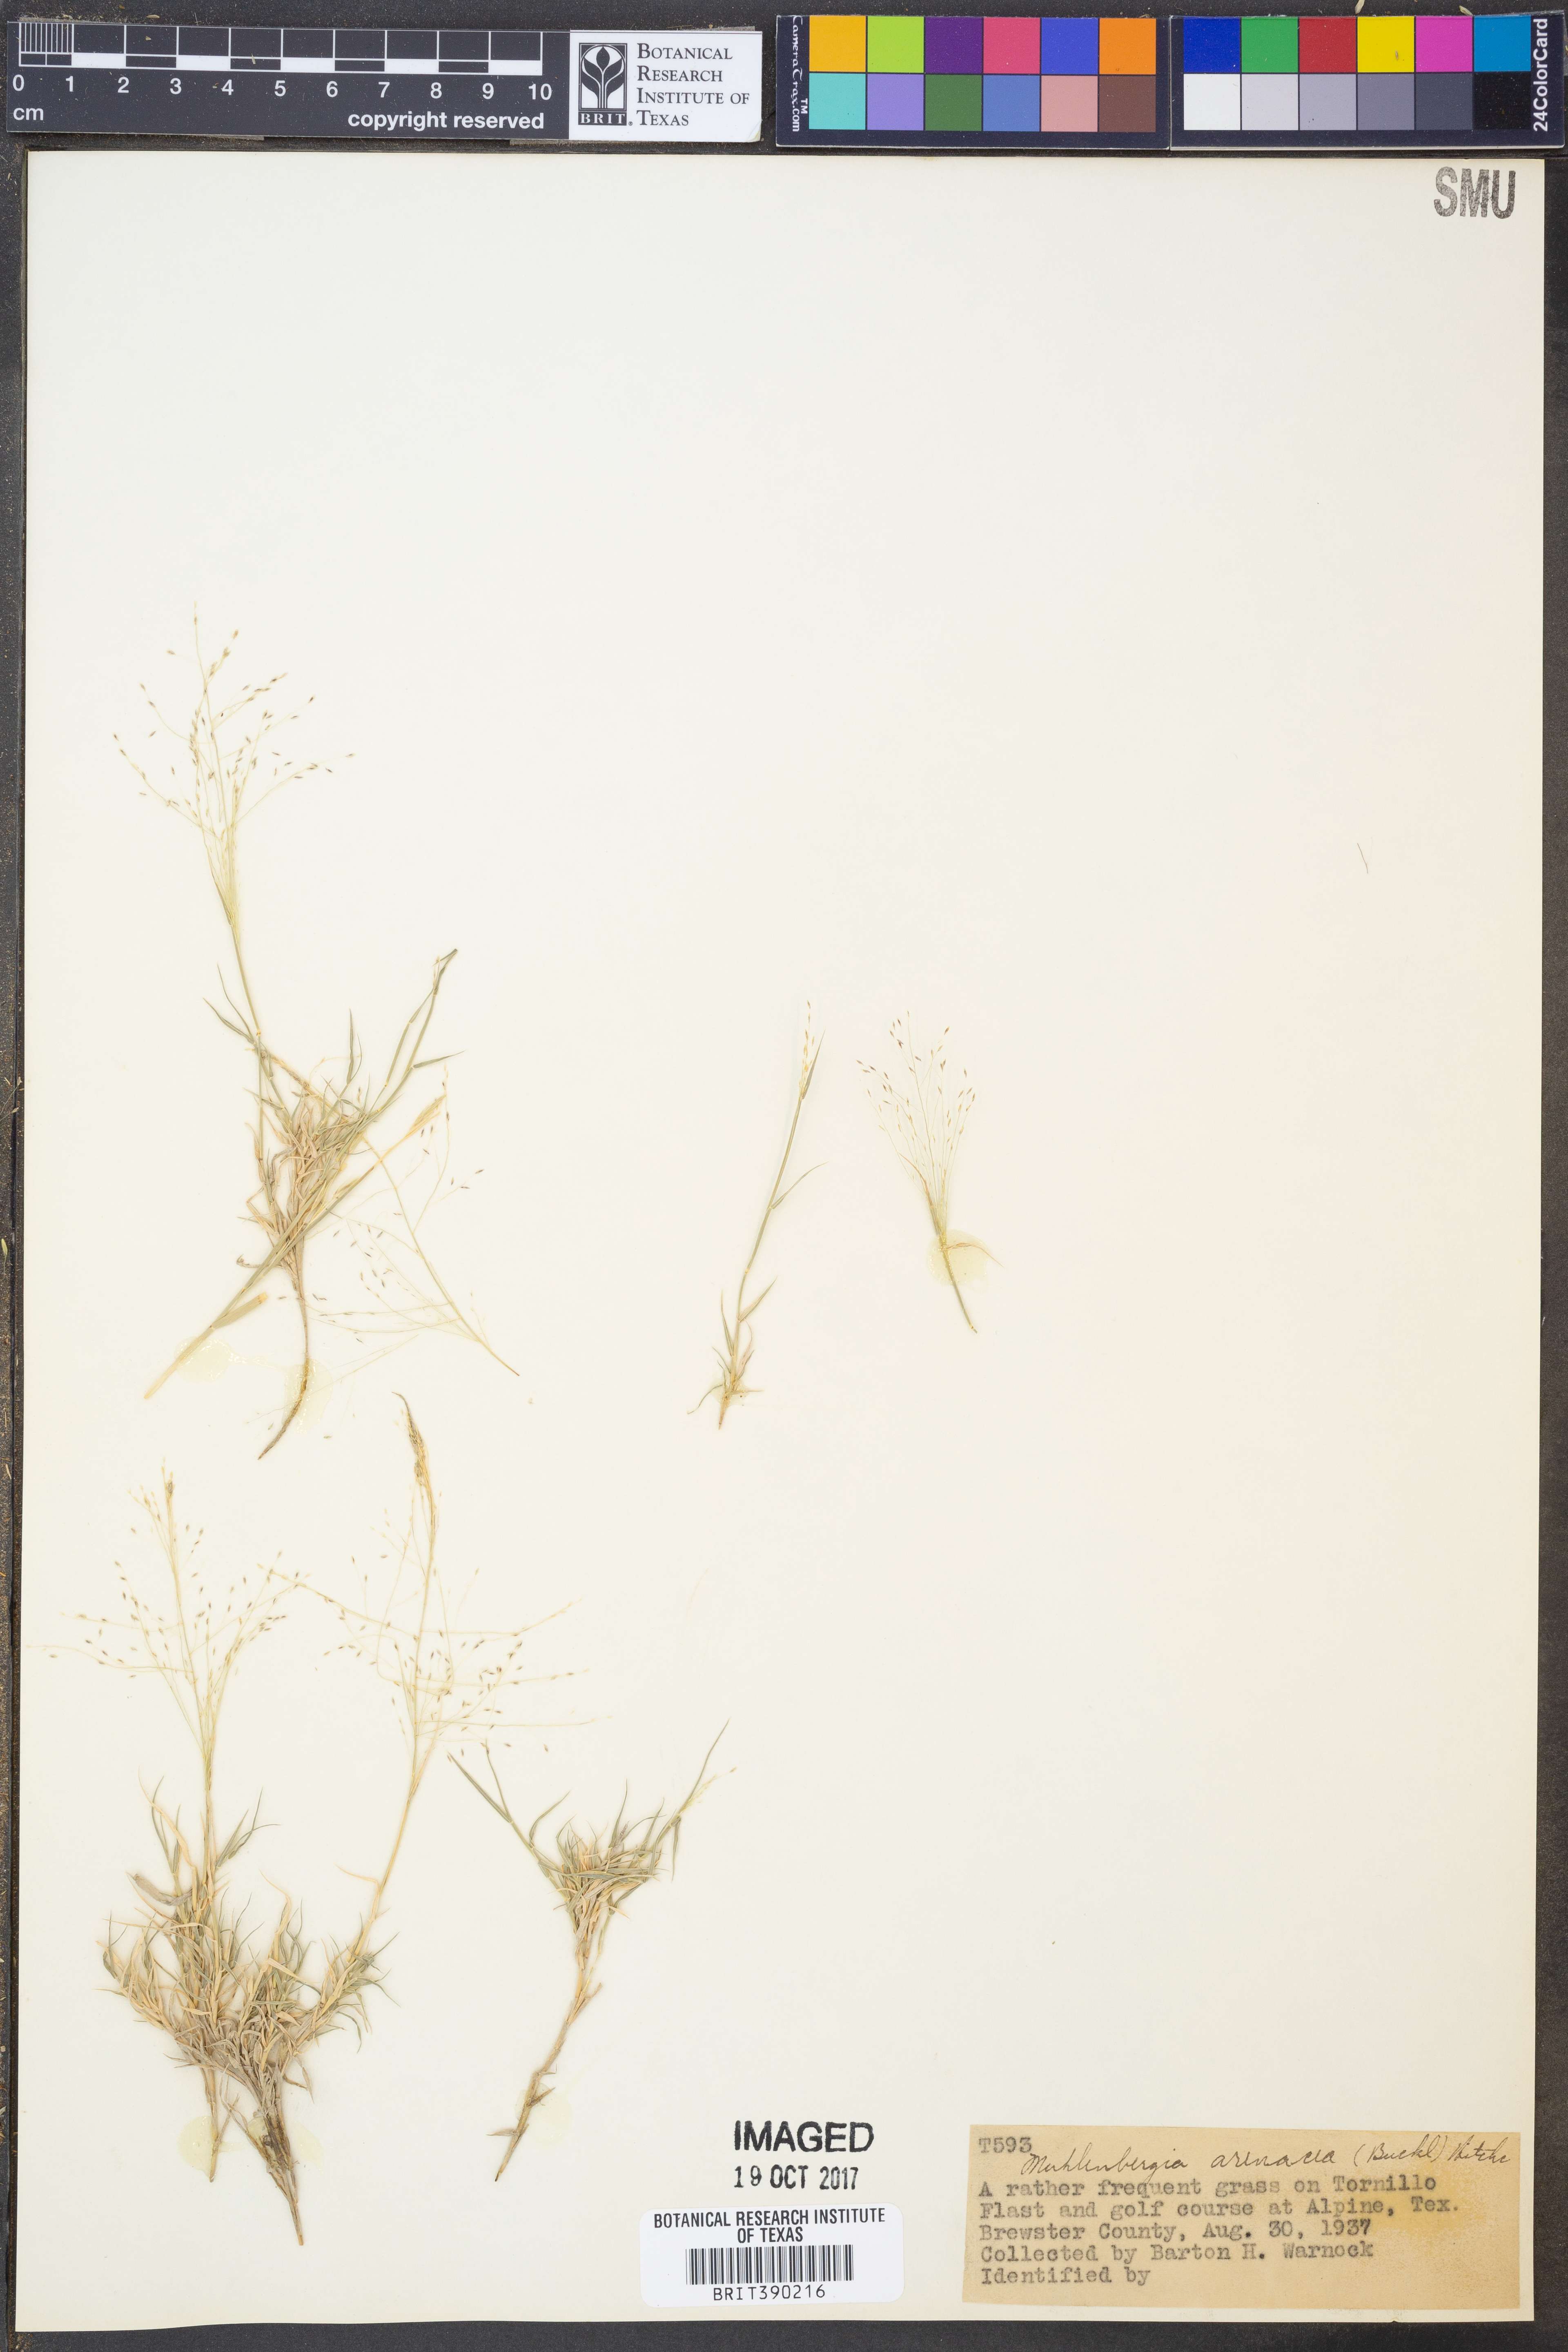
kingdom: Plantae
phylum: Tracheophyta
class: Liliopsida
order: Poales
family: Poaceae
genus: Muhlenbergia
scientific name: Muhlenbergia arenacea
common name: Ear muhly
